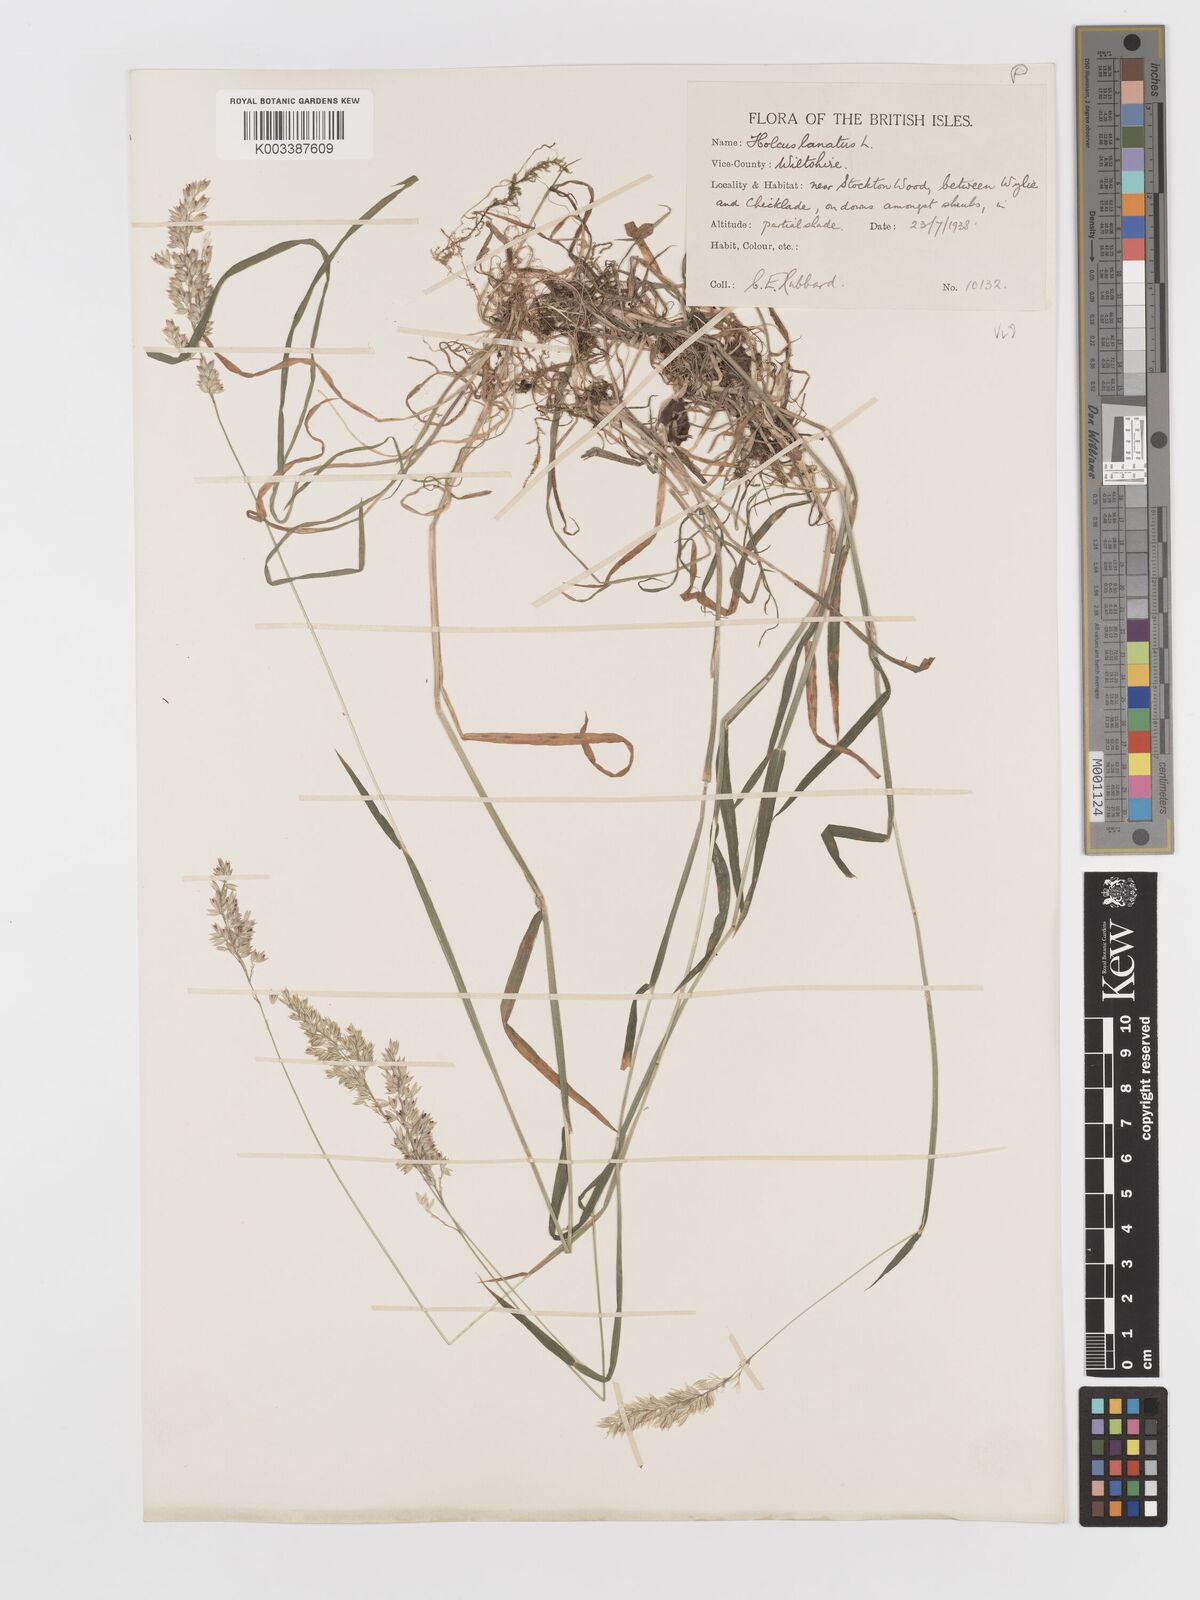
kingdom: Plantae
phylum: Tracheophyta
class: Liliopsida
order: Poales
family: Poaceae
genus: Holcus
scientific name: Holcus lanatus
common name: Yorkshire-fog
